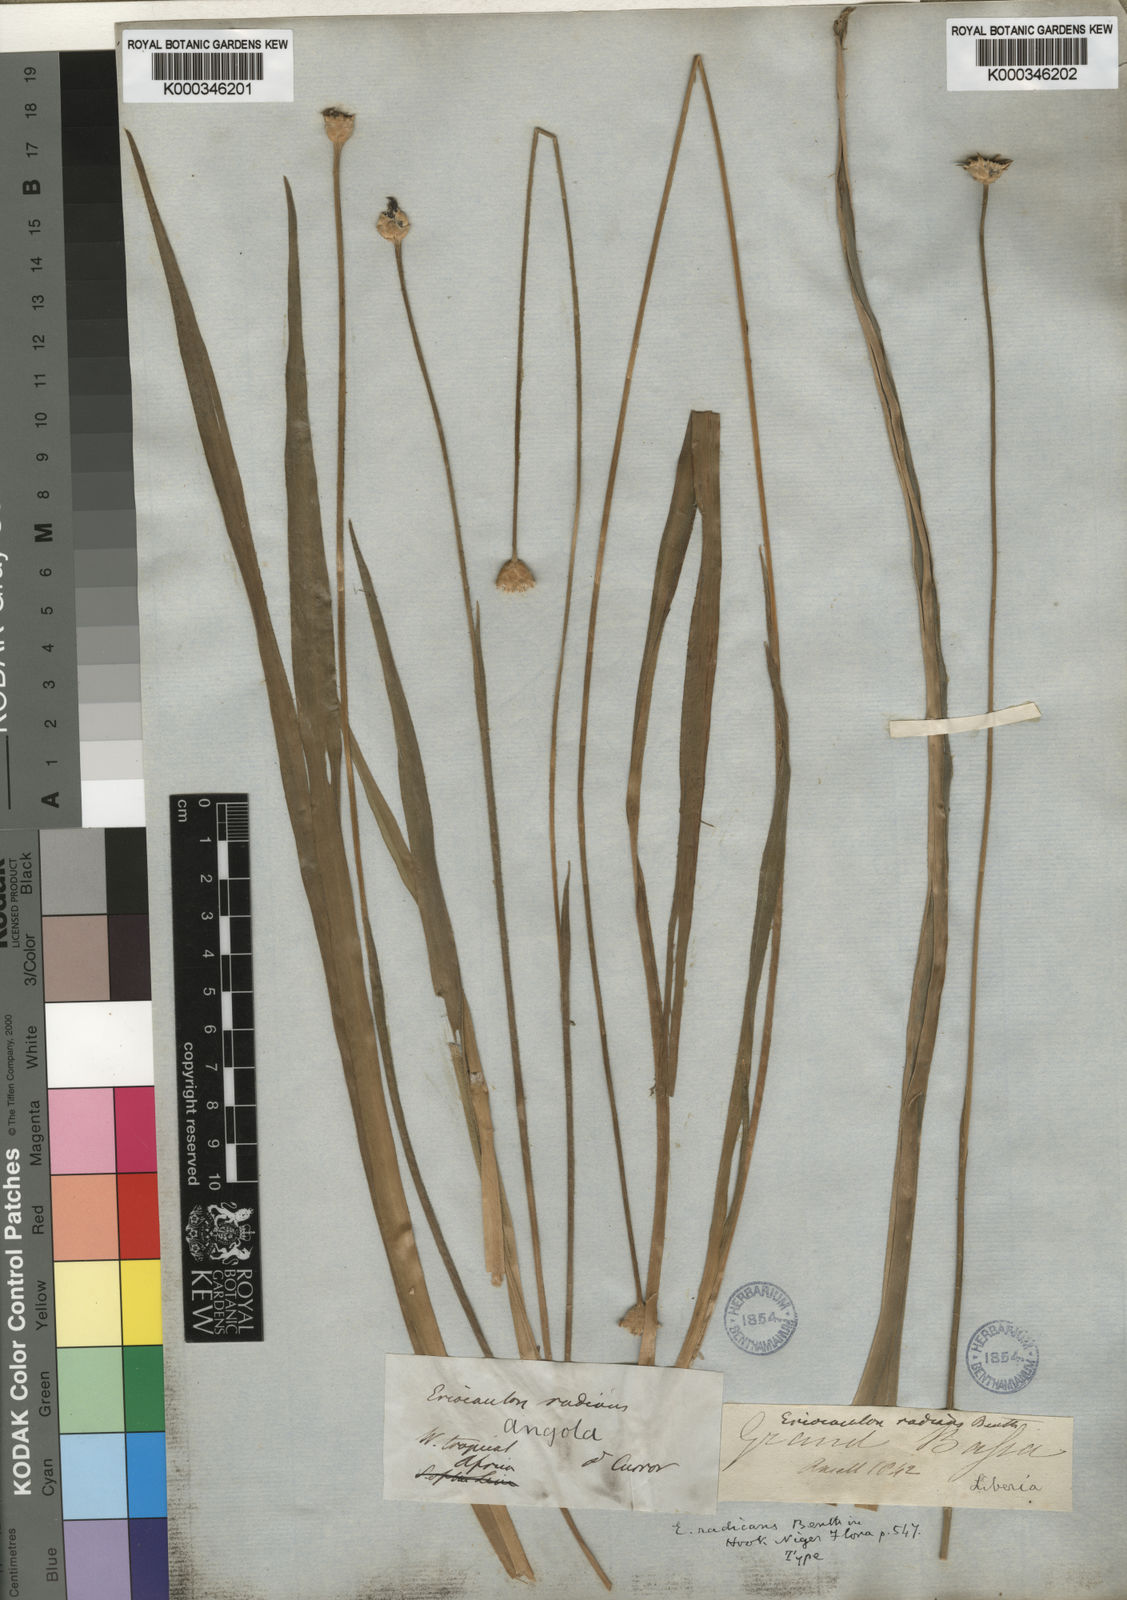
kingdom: Plantae
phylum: Tracheophyta
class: Liliopsida
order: Poales
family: Eriocaulaceae
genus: Mesanthemum
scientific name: Mesanthemum
